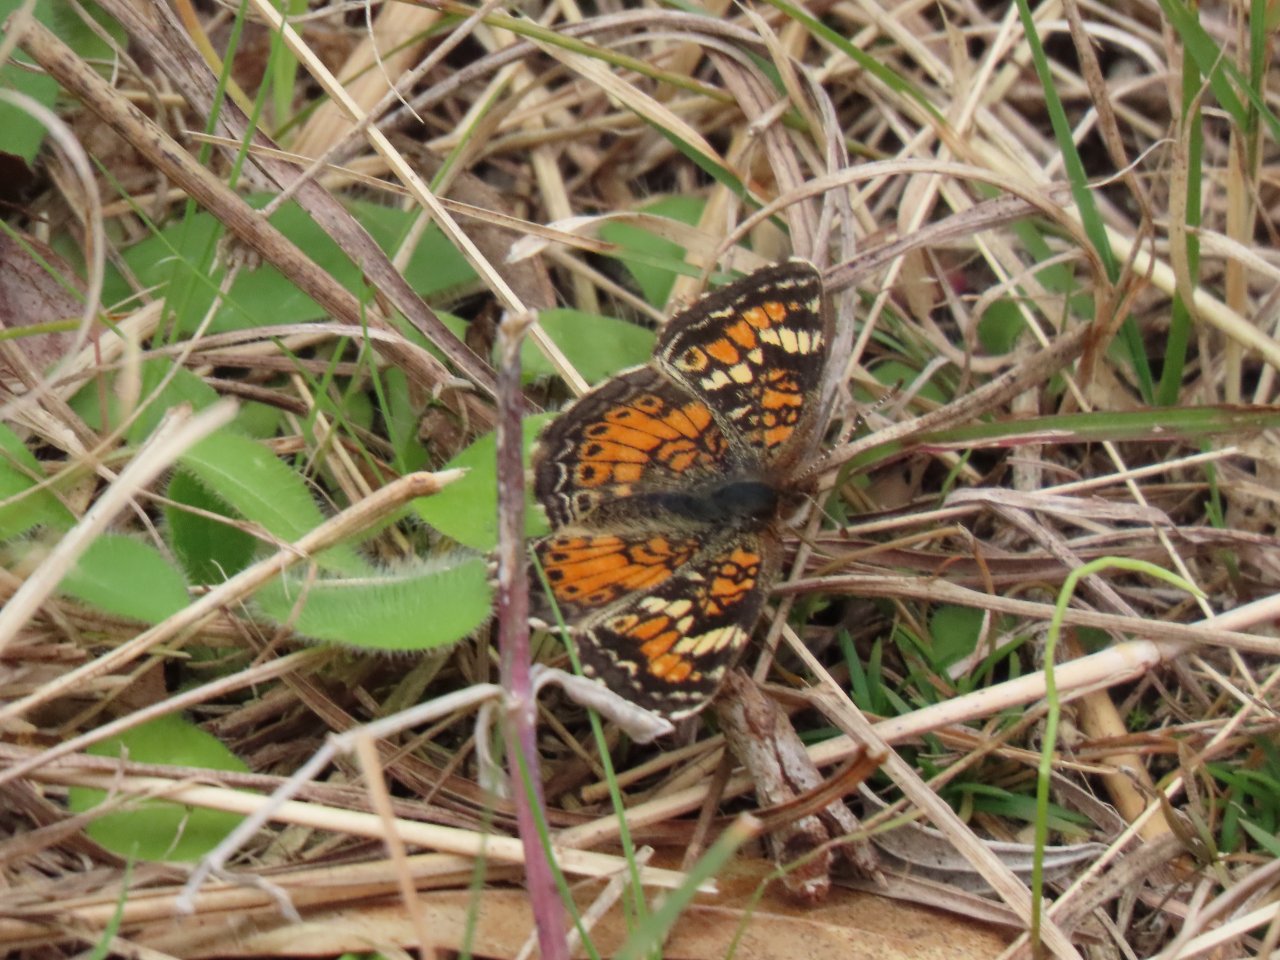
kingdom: Animalia
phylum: Arthropoda
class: Insecta
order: Lepidoptera
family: Nymphalidae
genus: Phyciodes
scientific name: Phyciodes phaon
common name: Phaon Crescent
